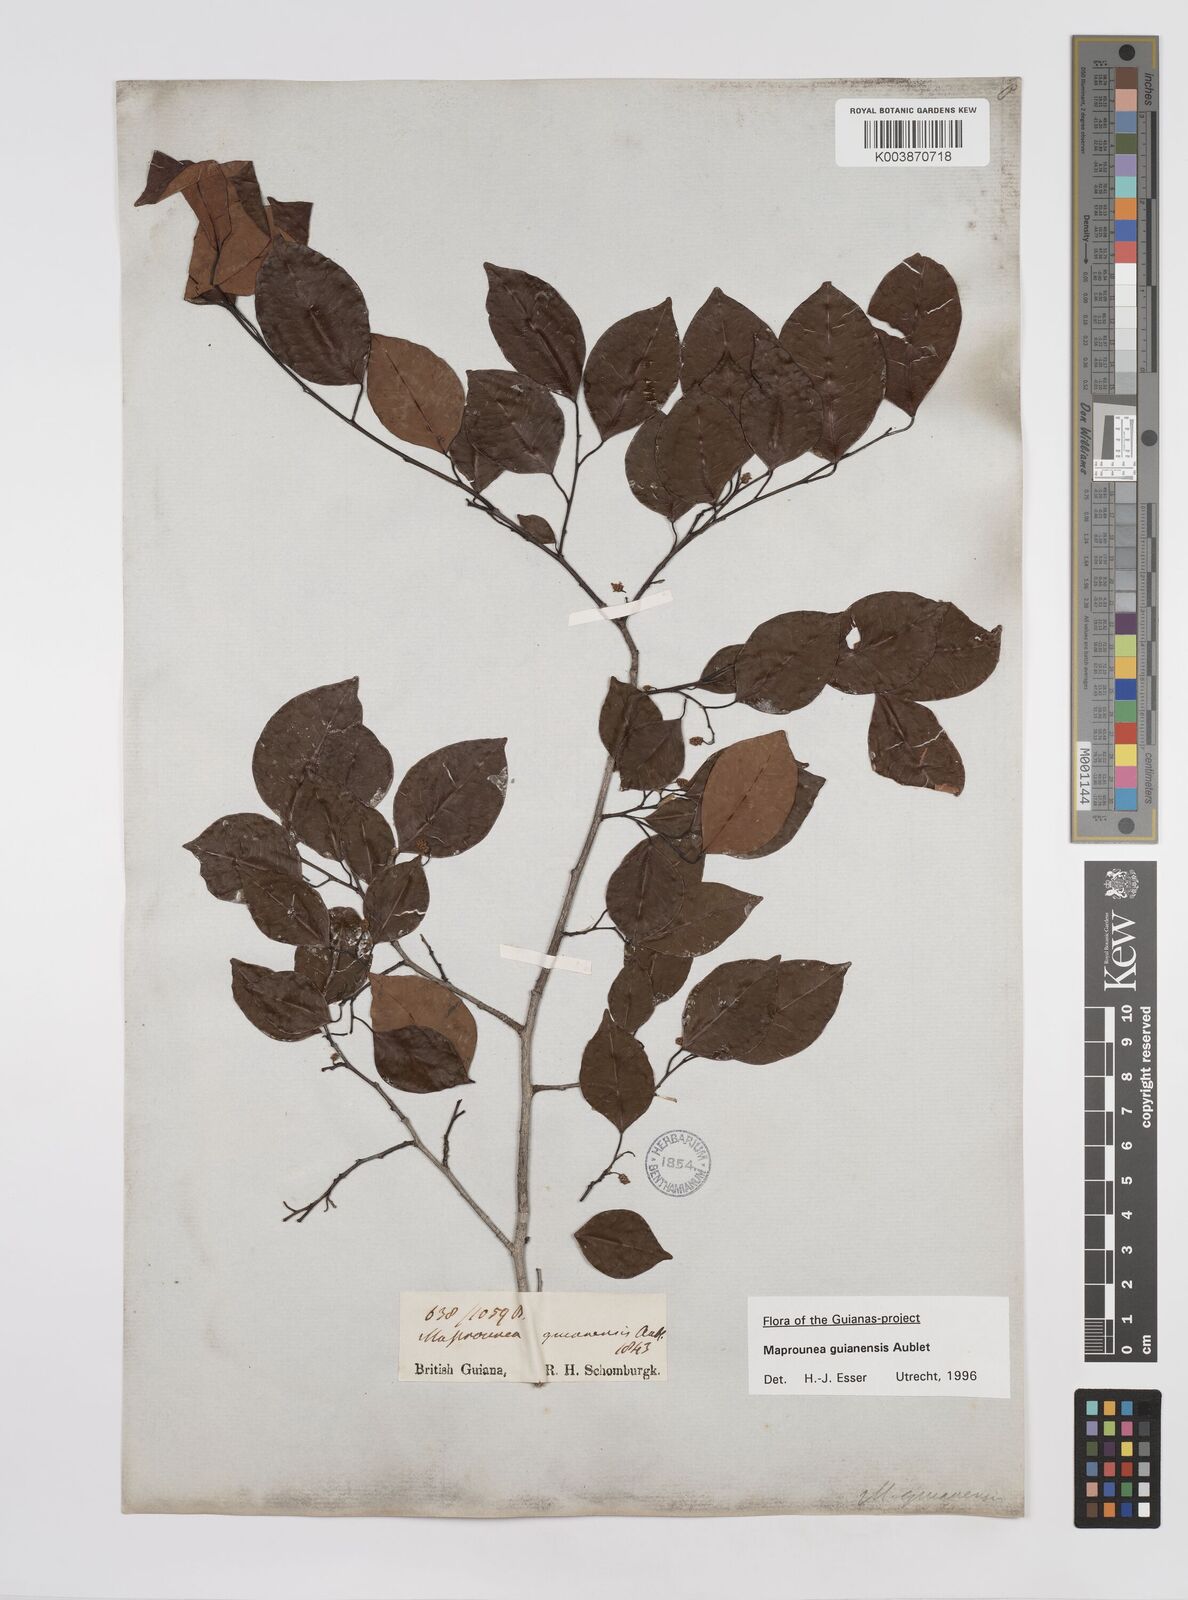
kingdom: Plantae
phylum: Tracheophyta
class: Magnoliopsida
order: Malpighiales
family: Euphorbiaceae
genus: Maprounea
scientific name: Maprounea guianensis
